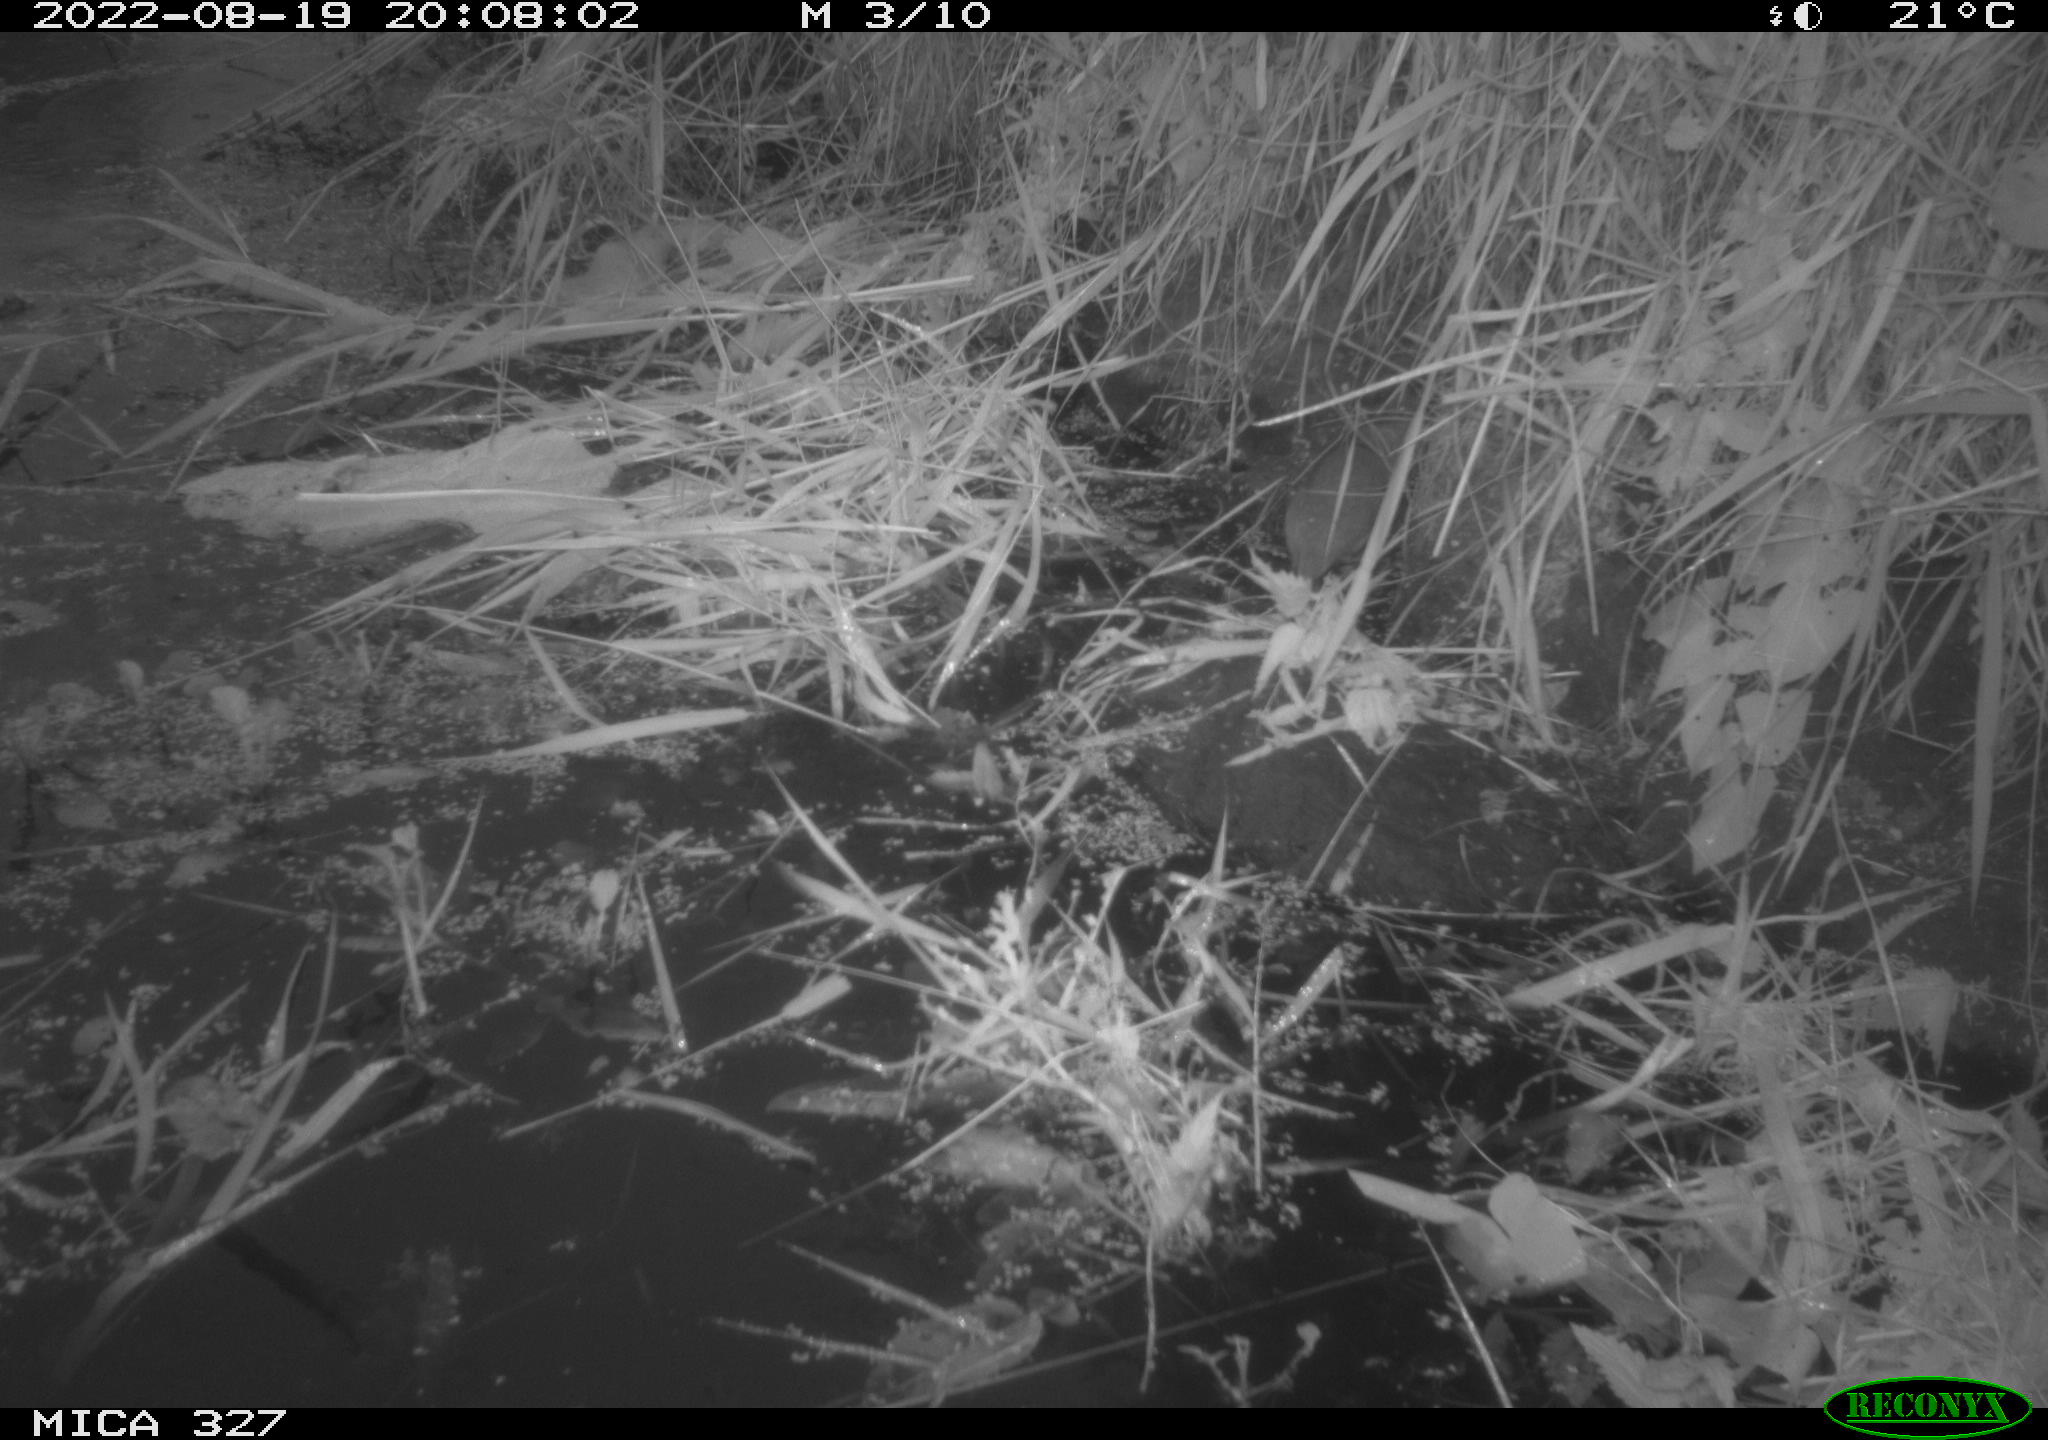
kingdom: Animalia
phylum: Chordata
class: Mammalia
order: Rodentia
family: Cricetidae
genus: Ondatra
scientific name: Ondatra zibethicus
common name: Muskrat
